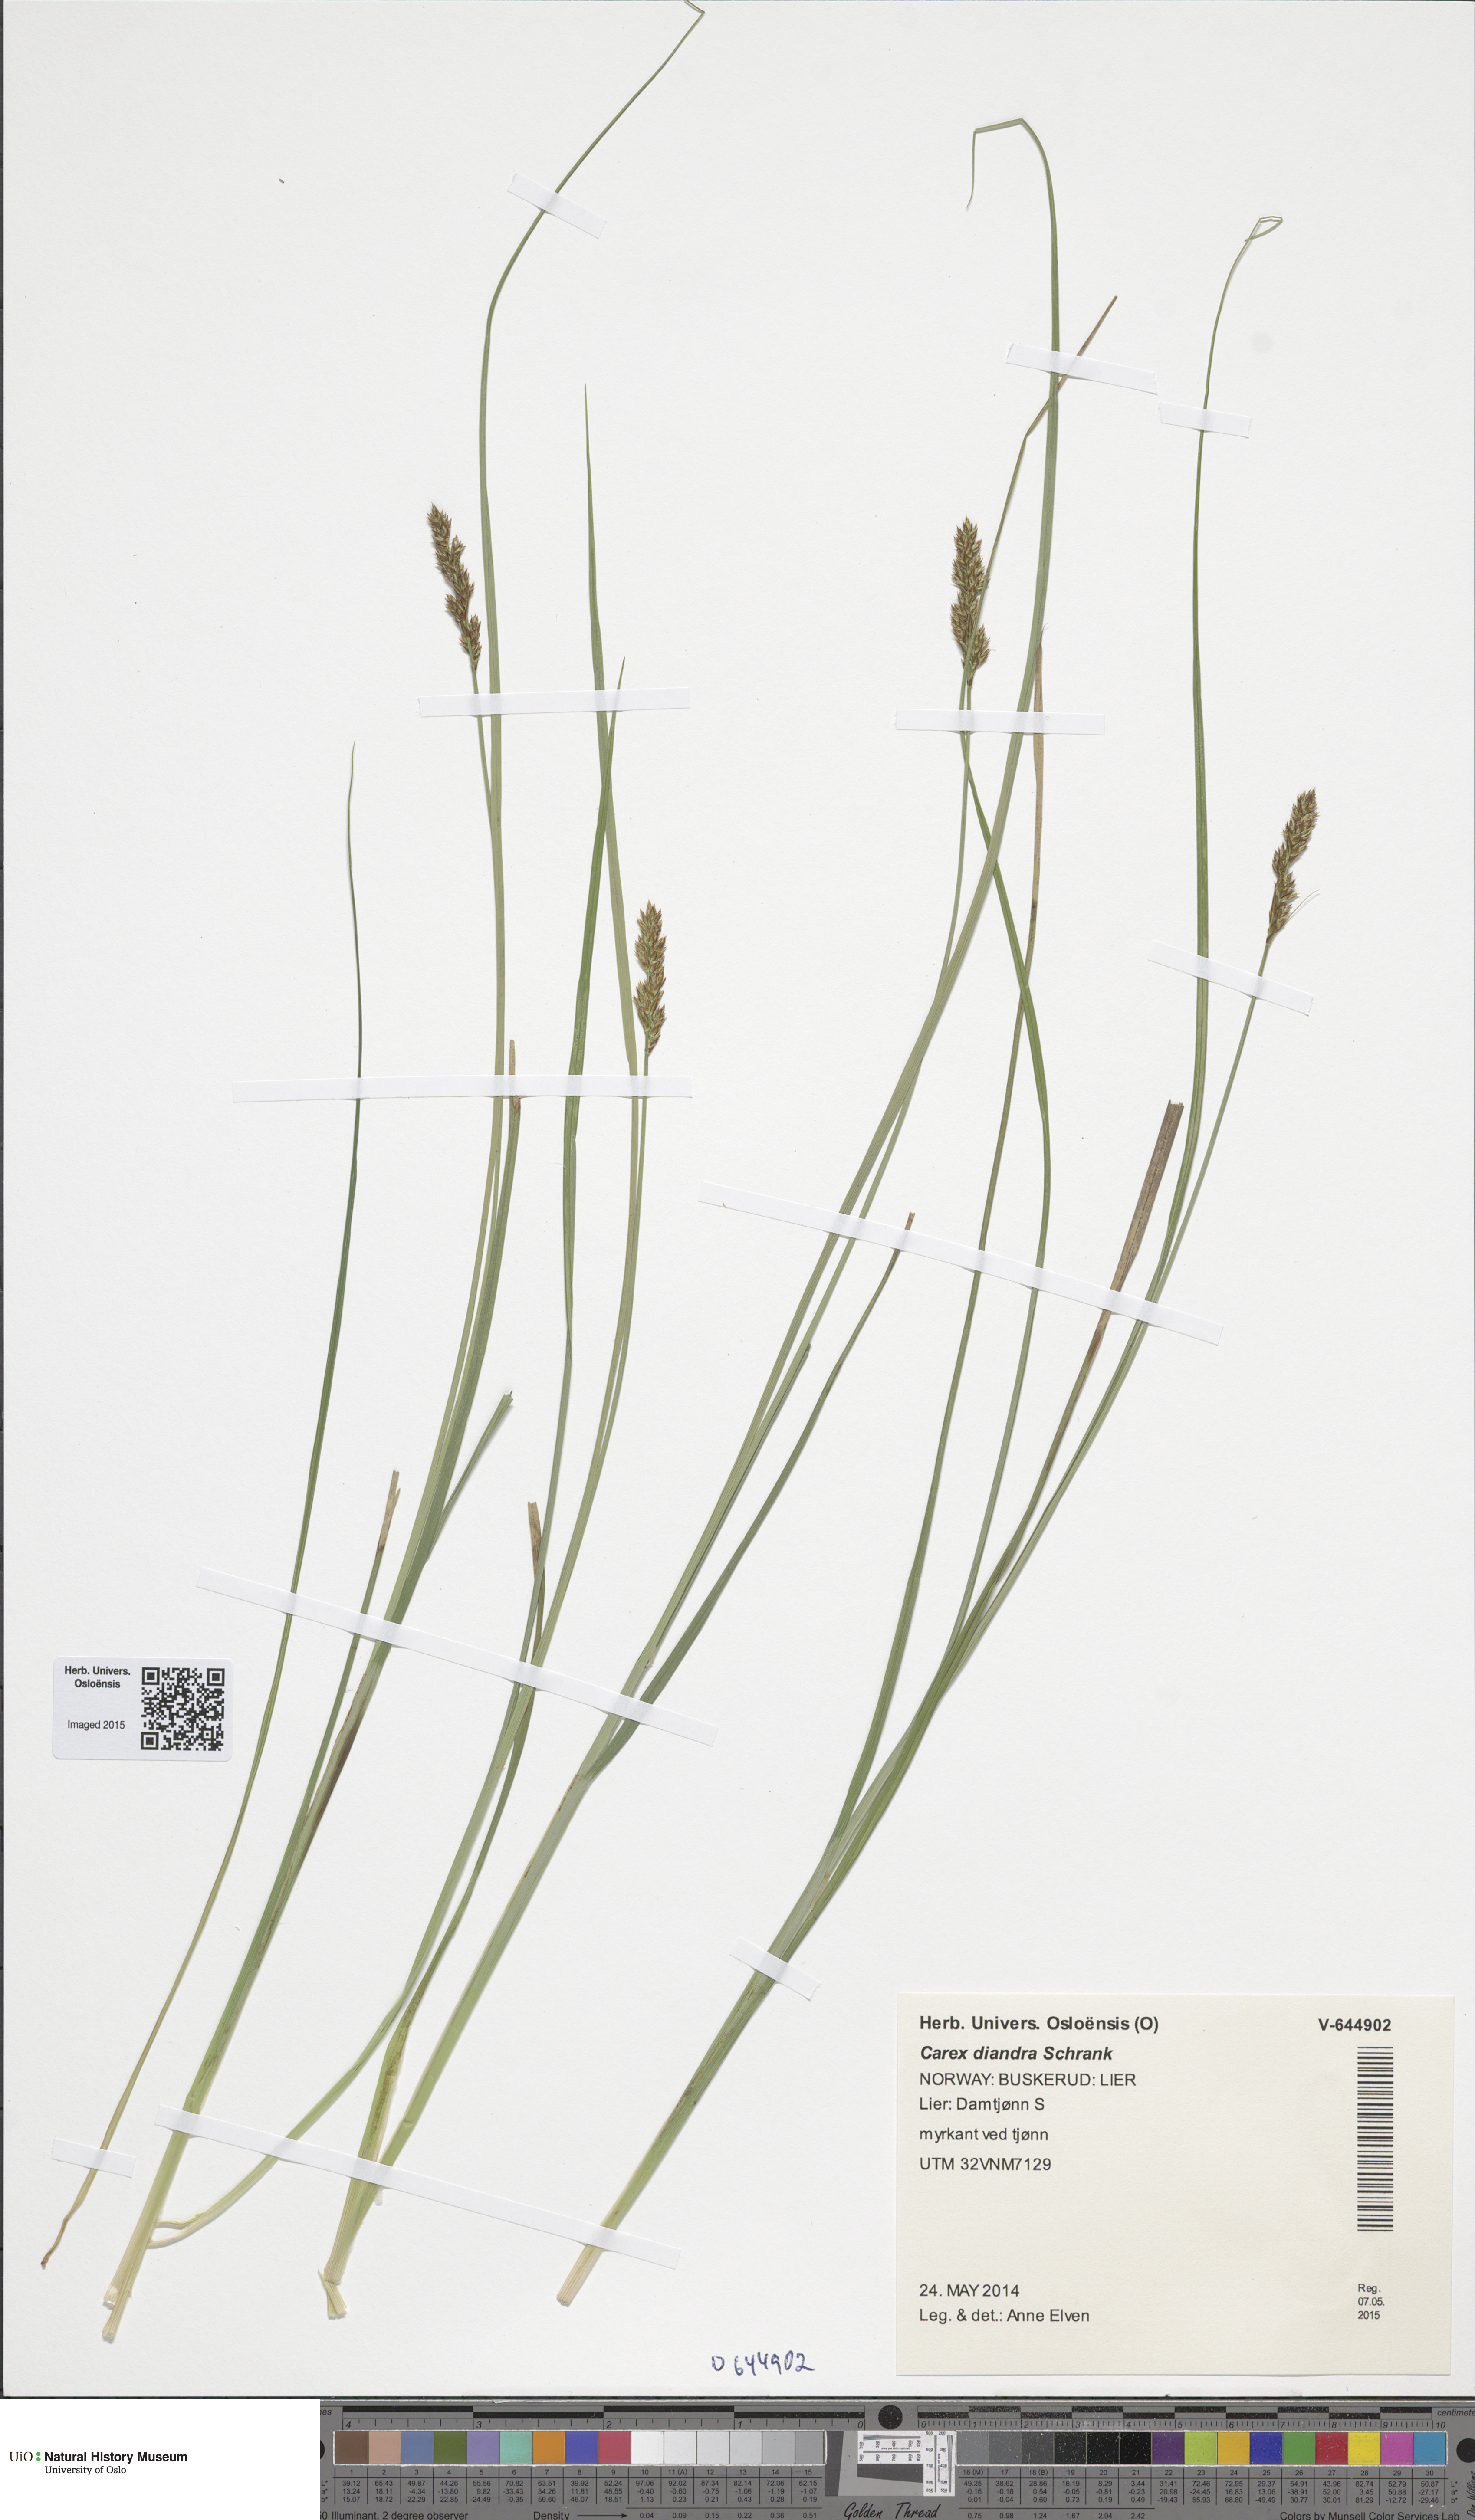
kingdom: Plantae
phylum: Tracheophyta
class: Liliopsida
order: Poales
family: Cyperaceae
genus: Carex
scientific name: Carex diandra
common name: Lesser tussock-sedge
